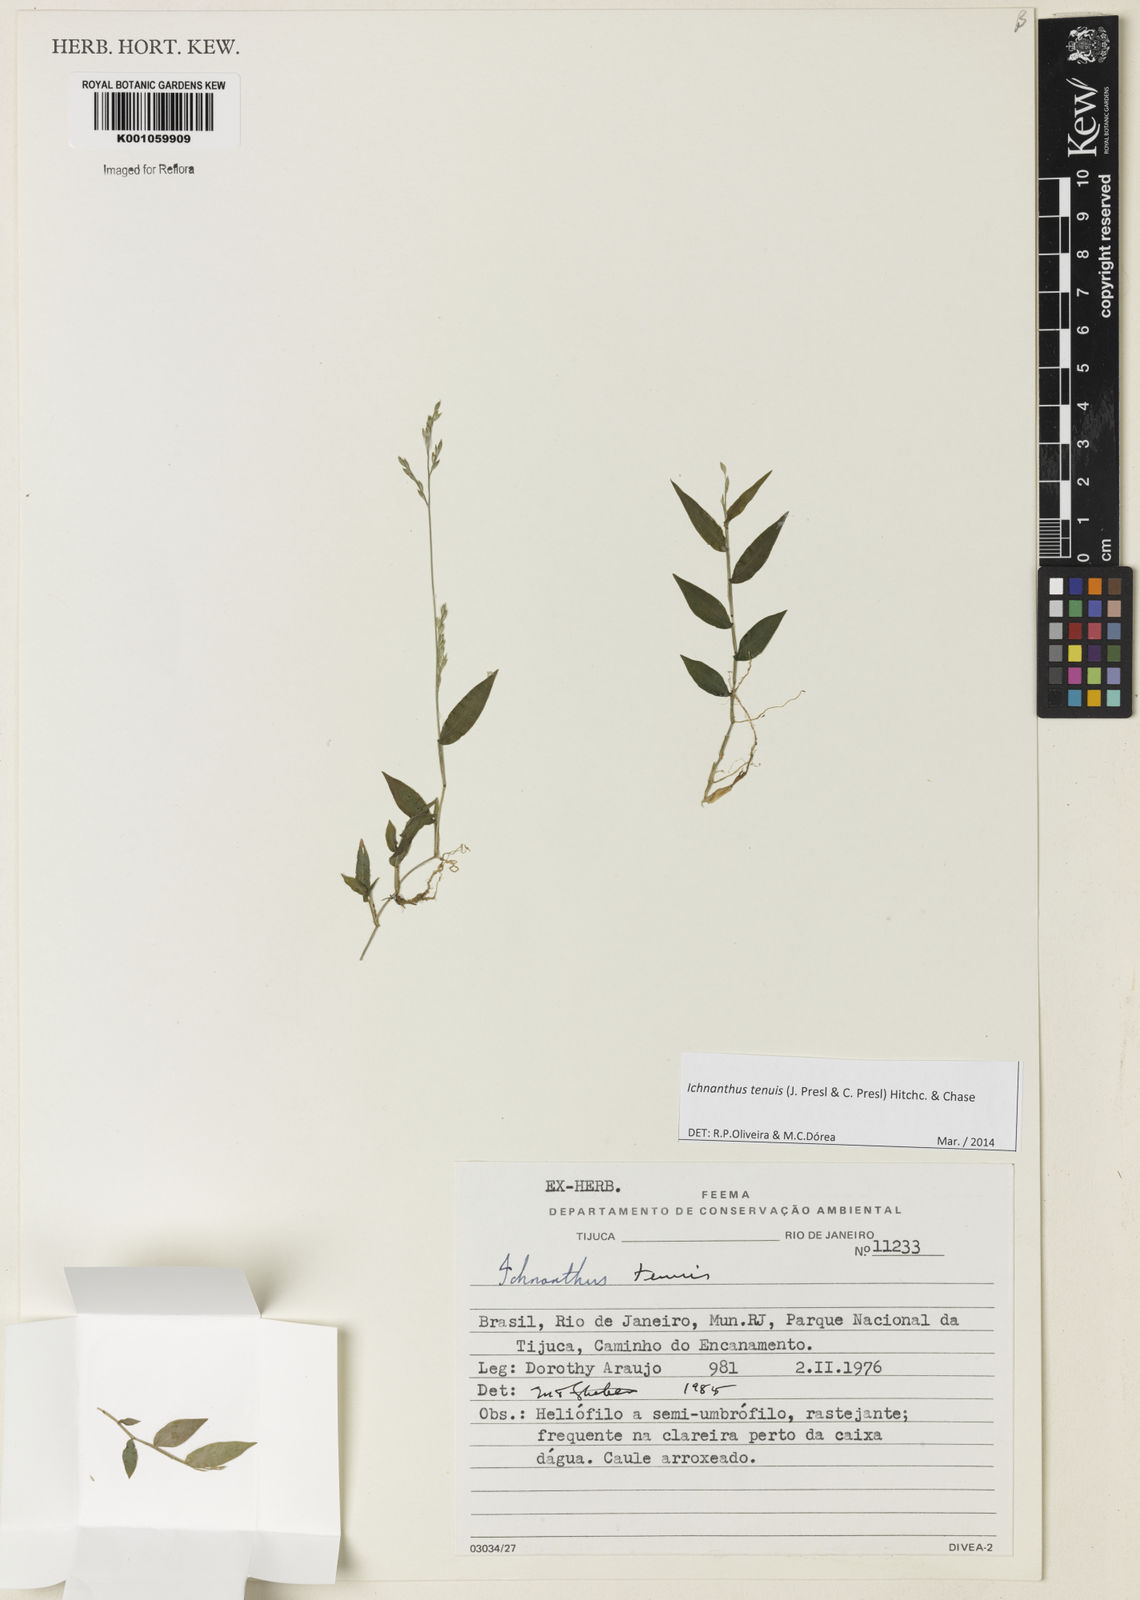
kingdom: Plantae
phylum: Tracheophyta
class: Liliopsida
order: Poales
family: Poaceae
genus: Ichnanthus
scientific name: Ichnanthus tenuis
